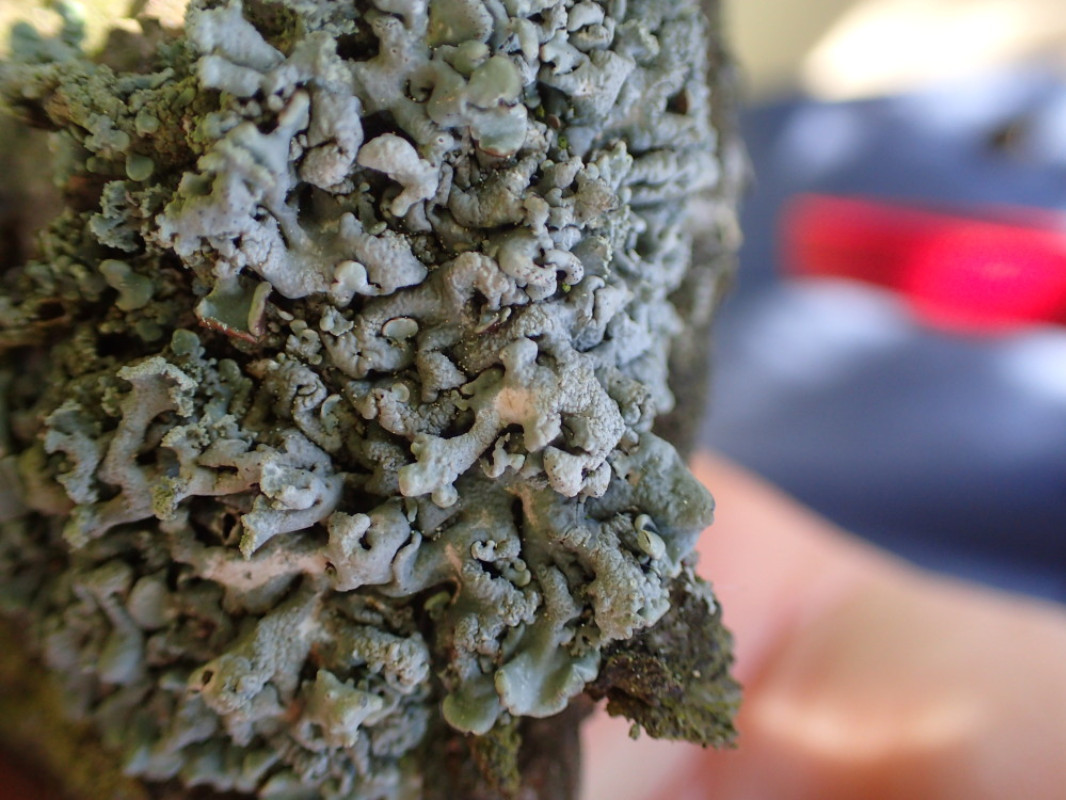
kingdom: Fungi
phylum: Ascomycota
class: Lecanoromycetes
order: Lecanorales
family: Parmeliaceae
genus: Hypogymnia
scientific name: Hypogymnia physodes
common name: almindelig kvistlav
